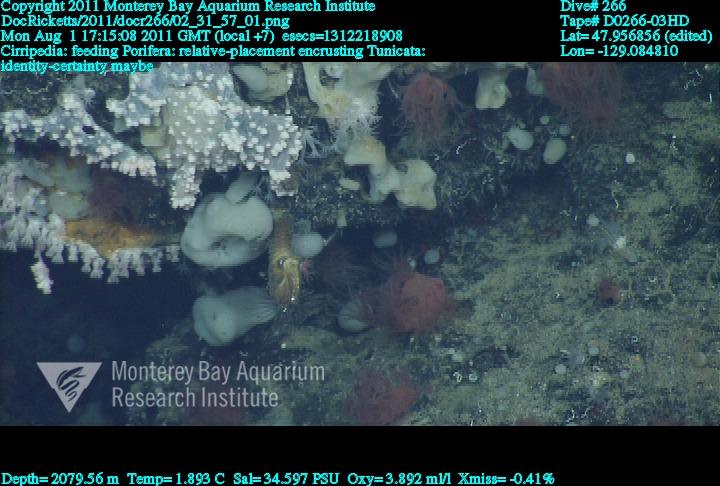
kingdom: Animalia
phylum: Porifera
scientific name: Porifera
